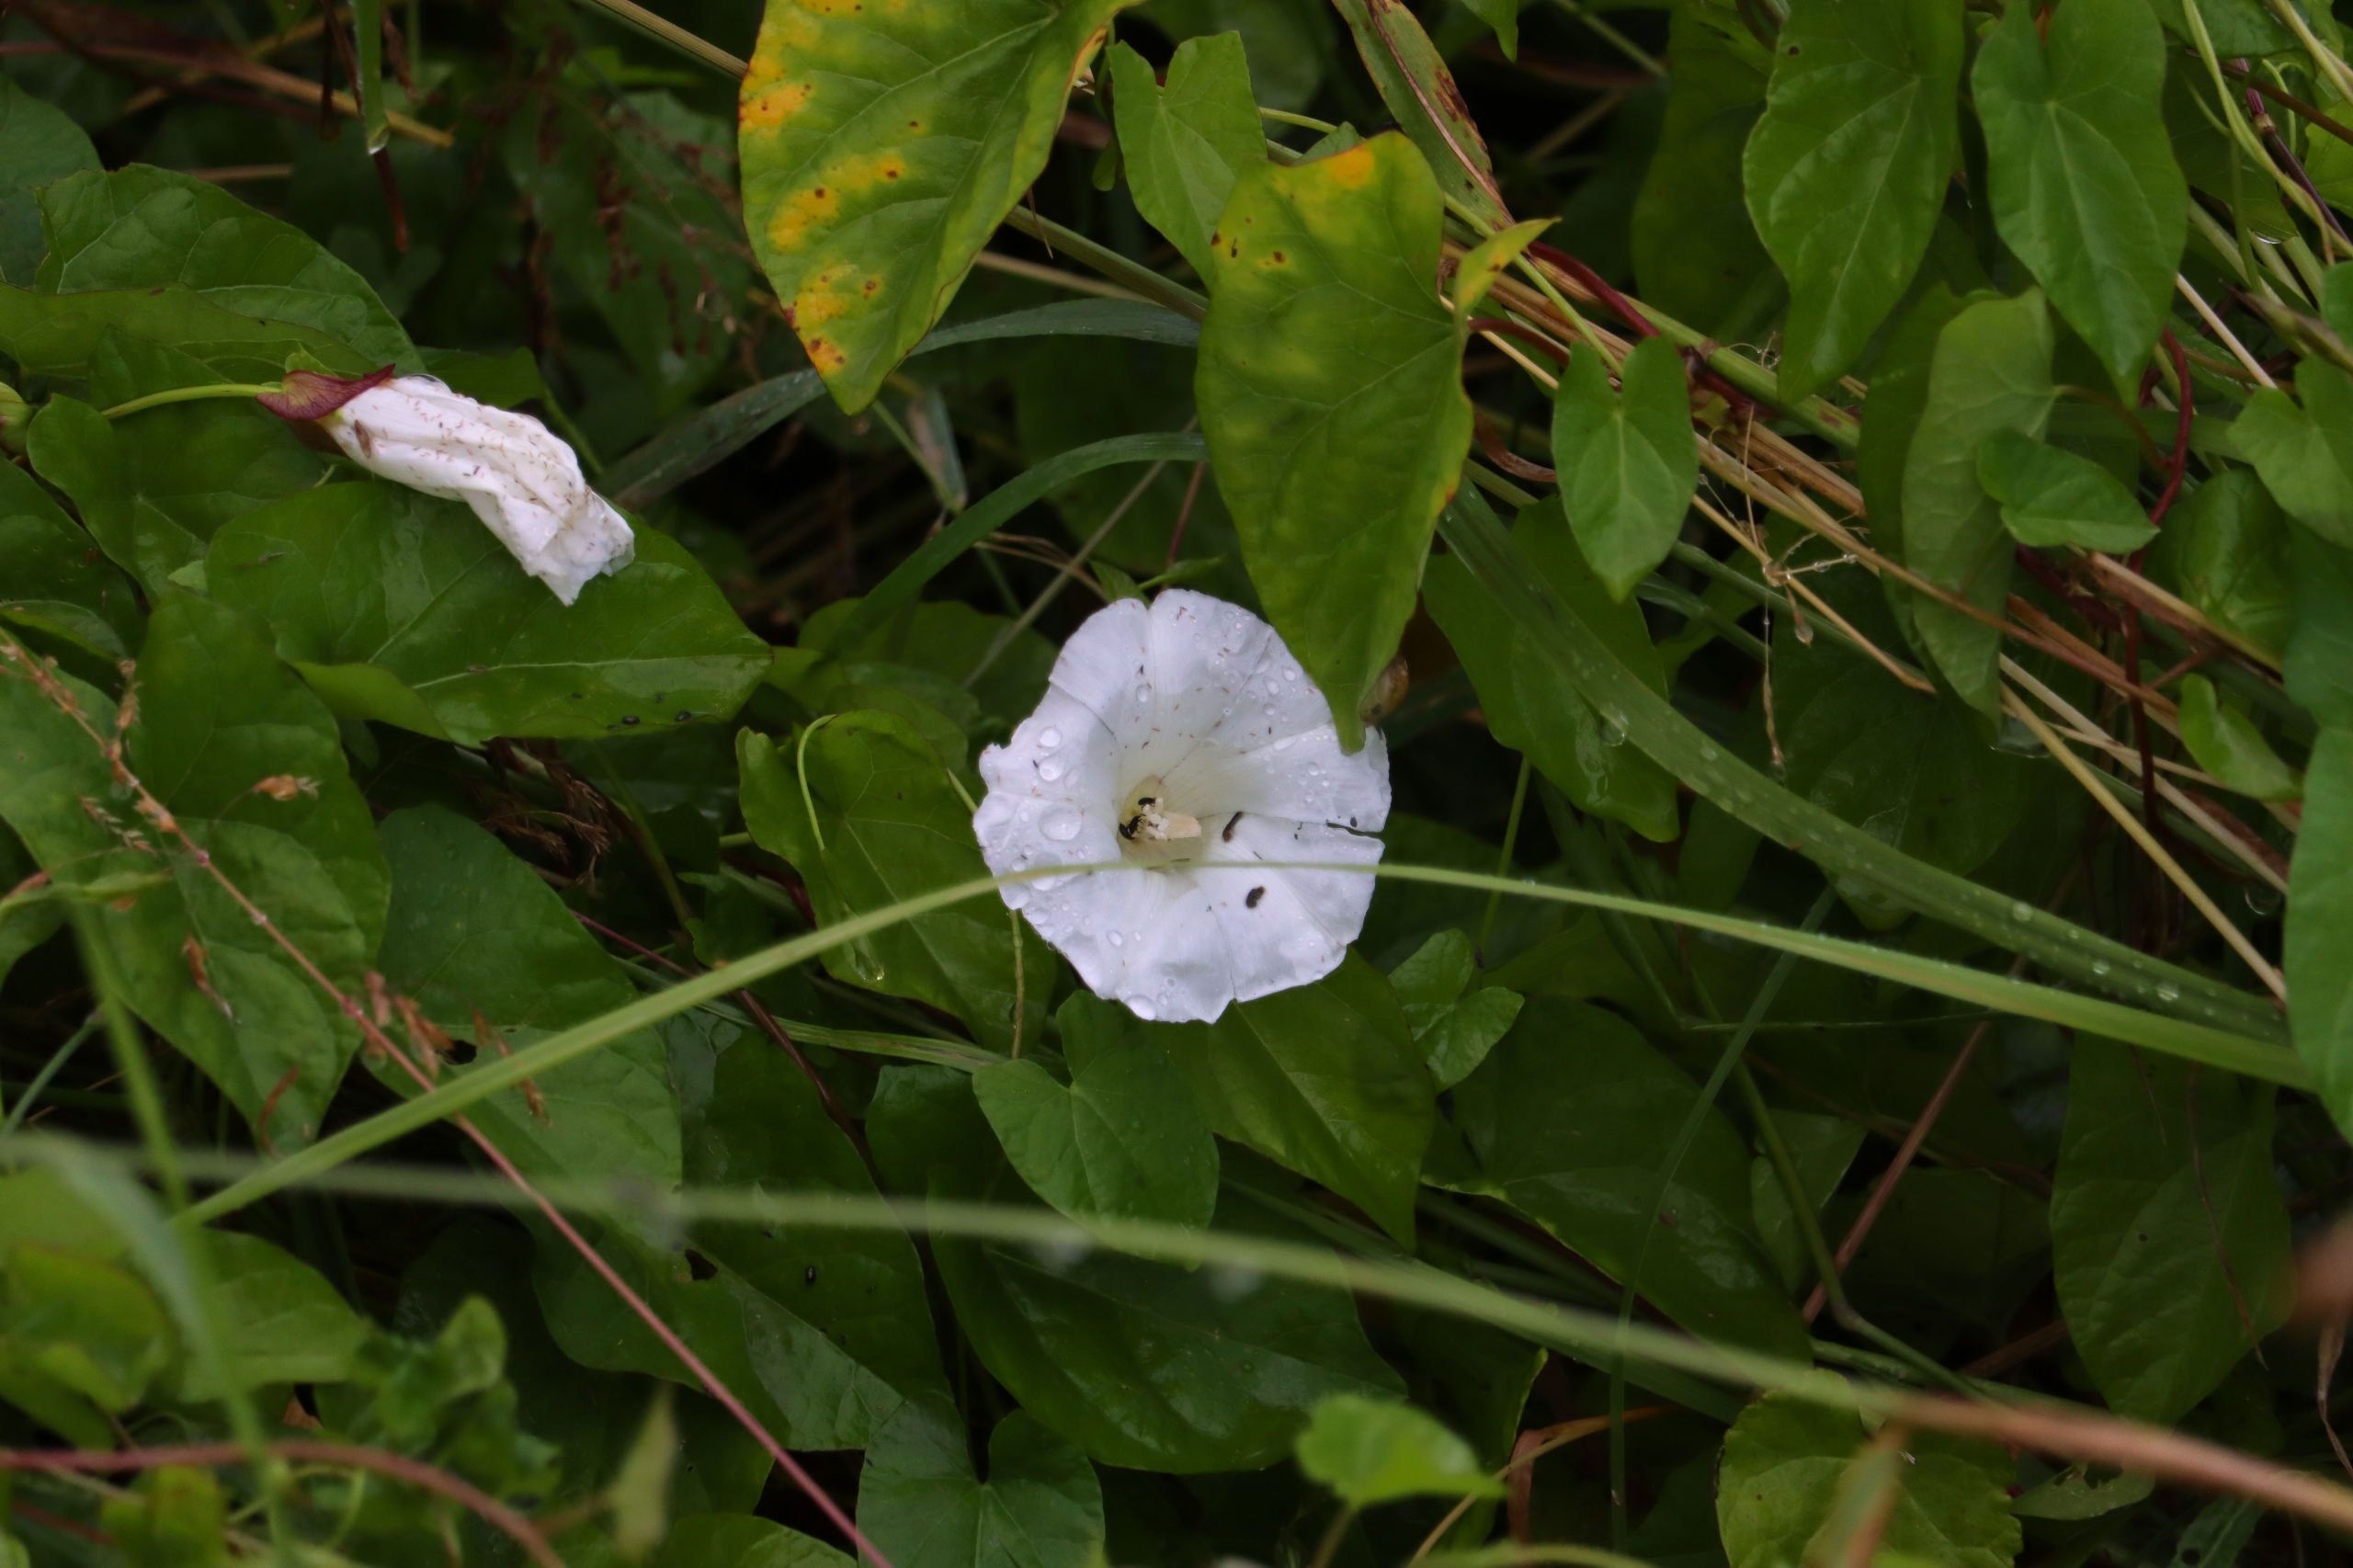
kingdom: Plantae
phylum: Tracheophyta
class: Magnoliopsida
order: Solanales
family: Convolvulaceae
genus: Calystegia
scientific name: Calystegia sepium
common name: Gærde-snerle
